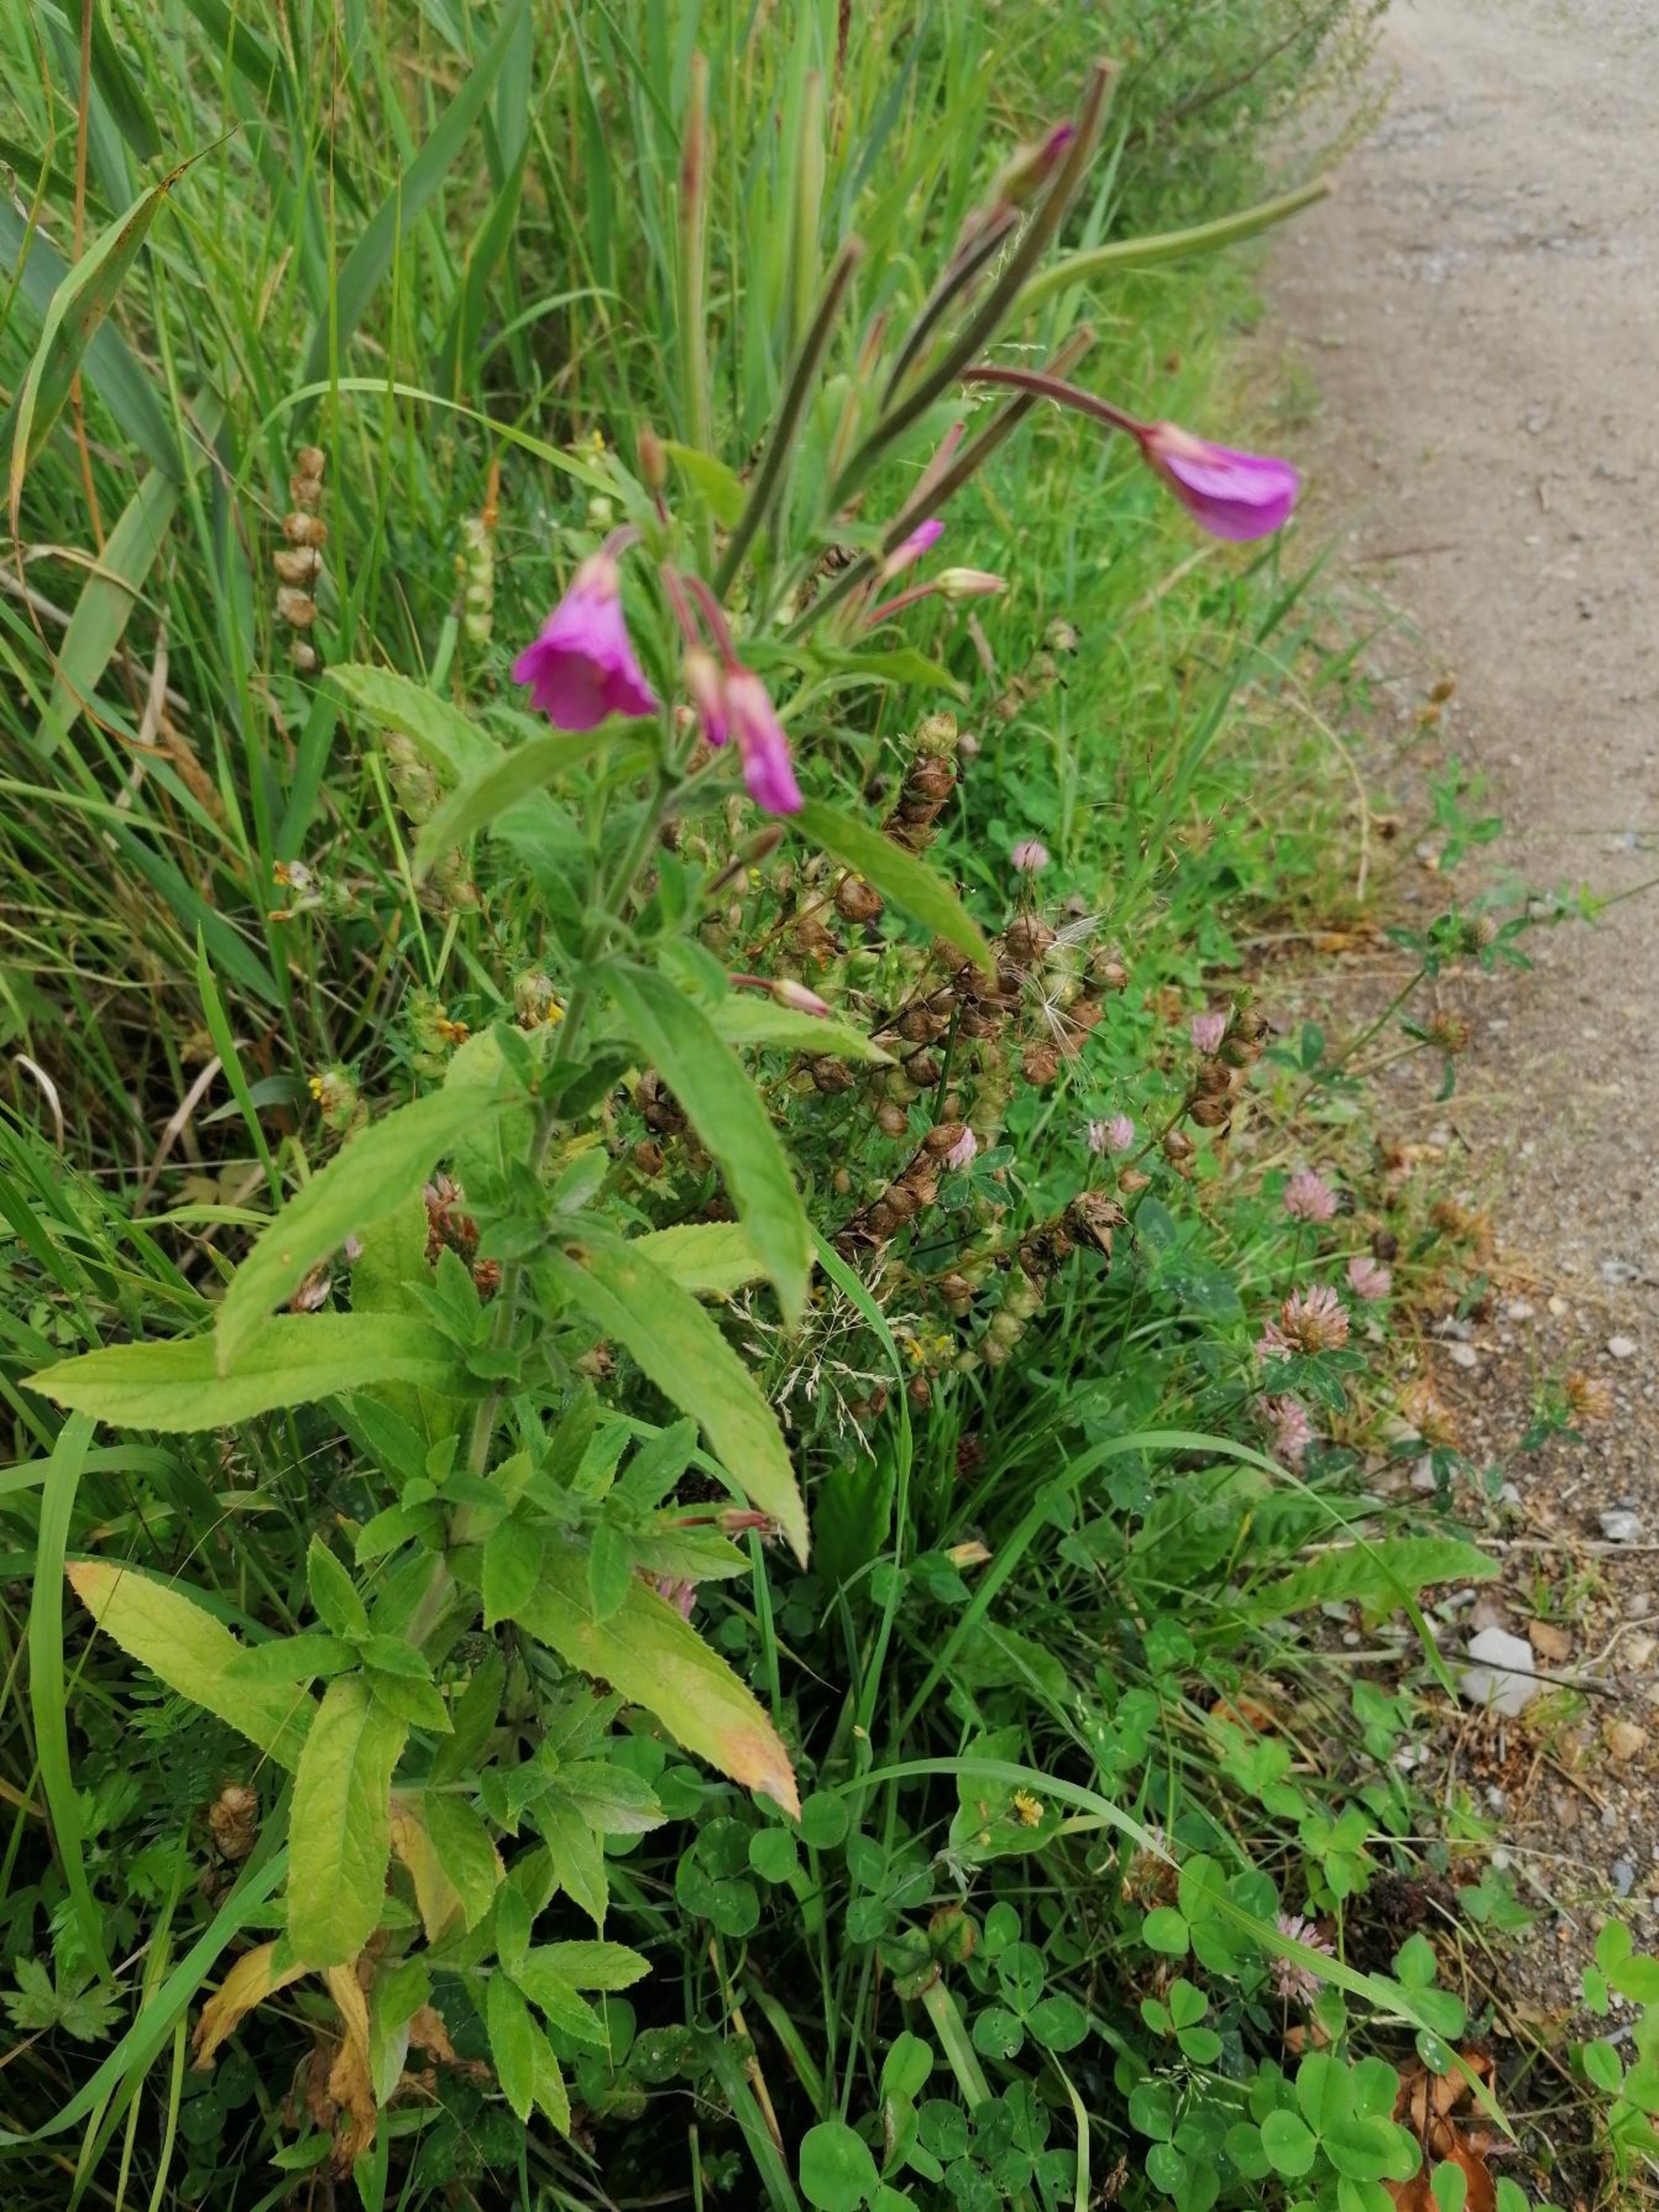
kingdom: Plantae
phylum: Tracheophyta
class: Magnoliopsida
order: Myrtales
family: Onagraceae
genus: Epilobium
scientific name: Epilobium hirsutum
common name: Lådden dueurt
